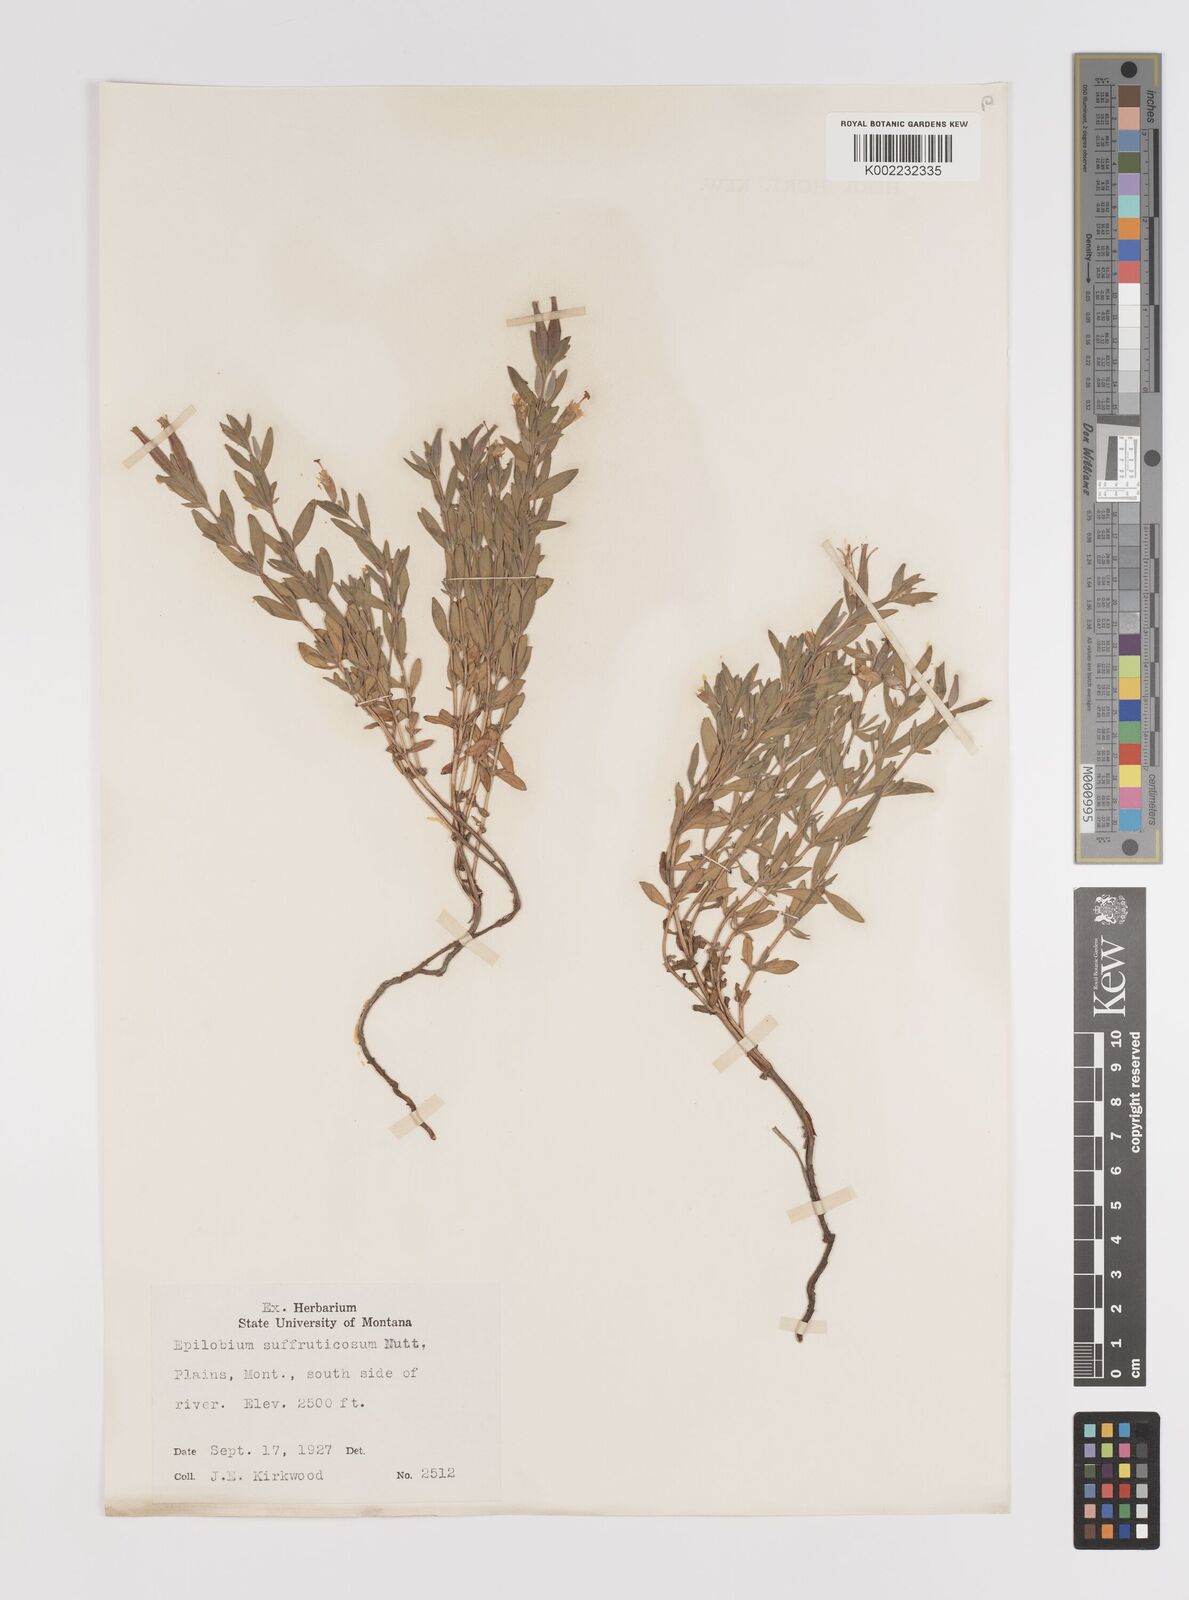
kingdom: Plantae
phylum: Tracheophyta
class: Magnoliopsida
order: Myrtales
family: Onagraceae
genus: Epilobium
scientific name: Epilobium suffruticosum
